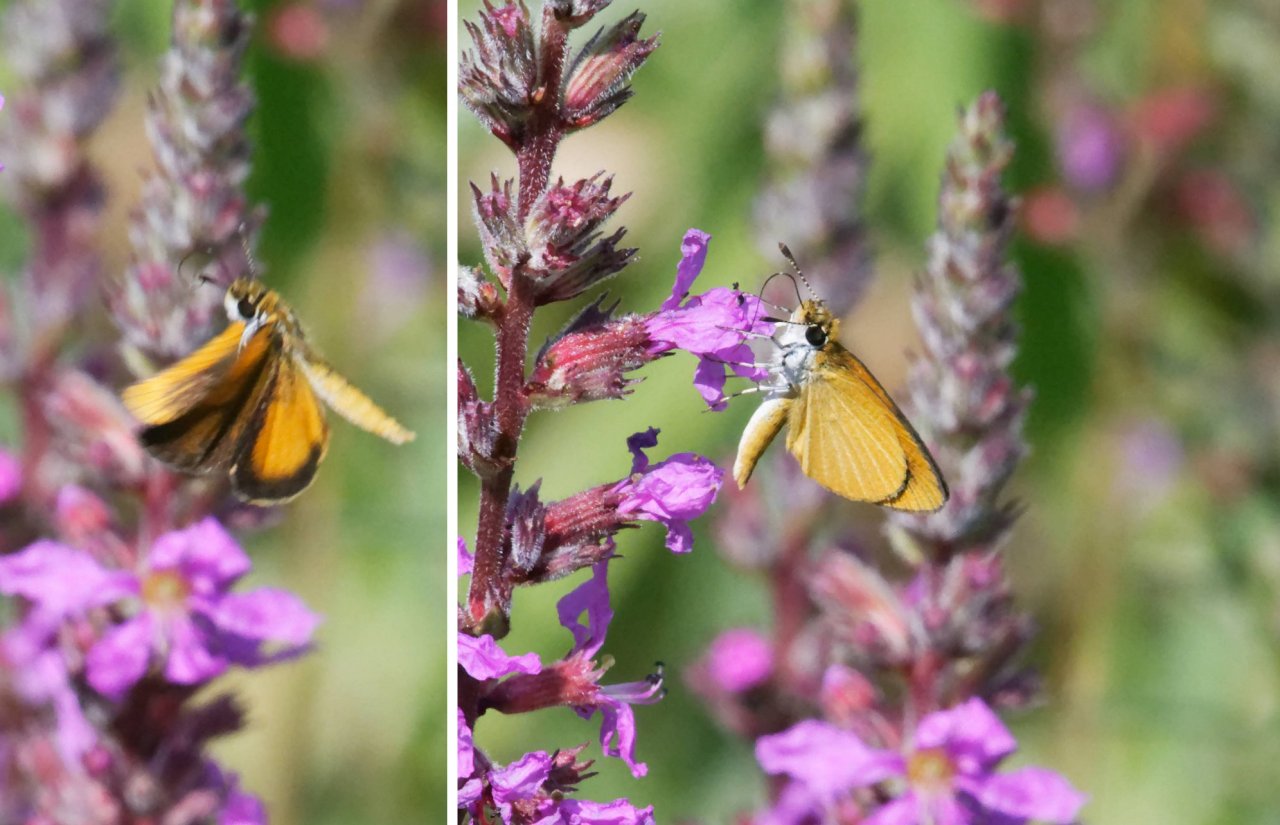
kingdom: Animalia
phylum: Arthropoda
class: Insecta
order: Lepidoptera
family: Hesperiidae
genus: Ancyloxypha
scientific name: Ancyloxypha numitor
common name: Least Skipper
